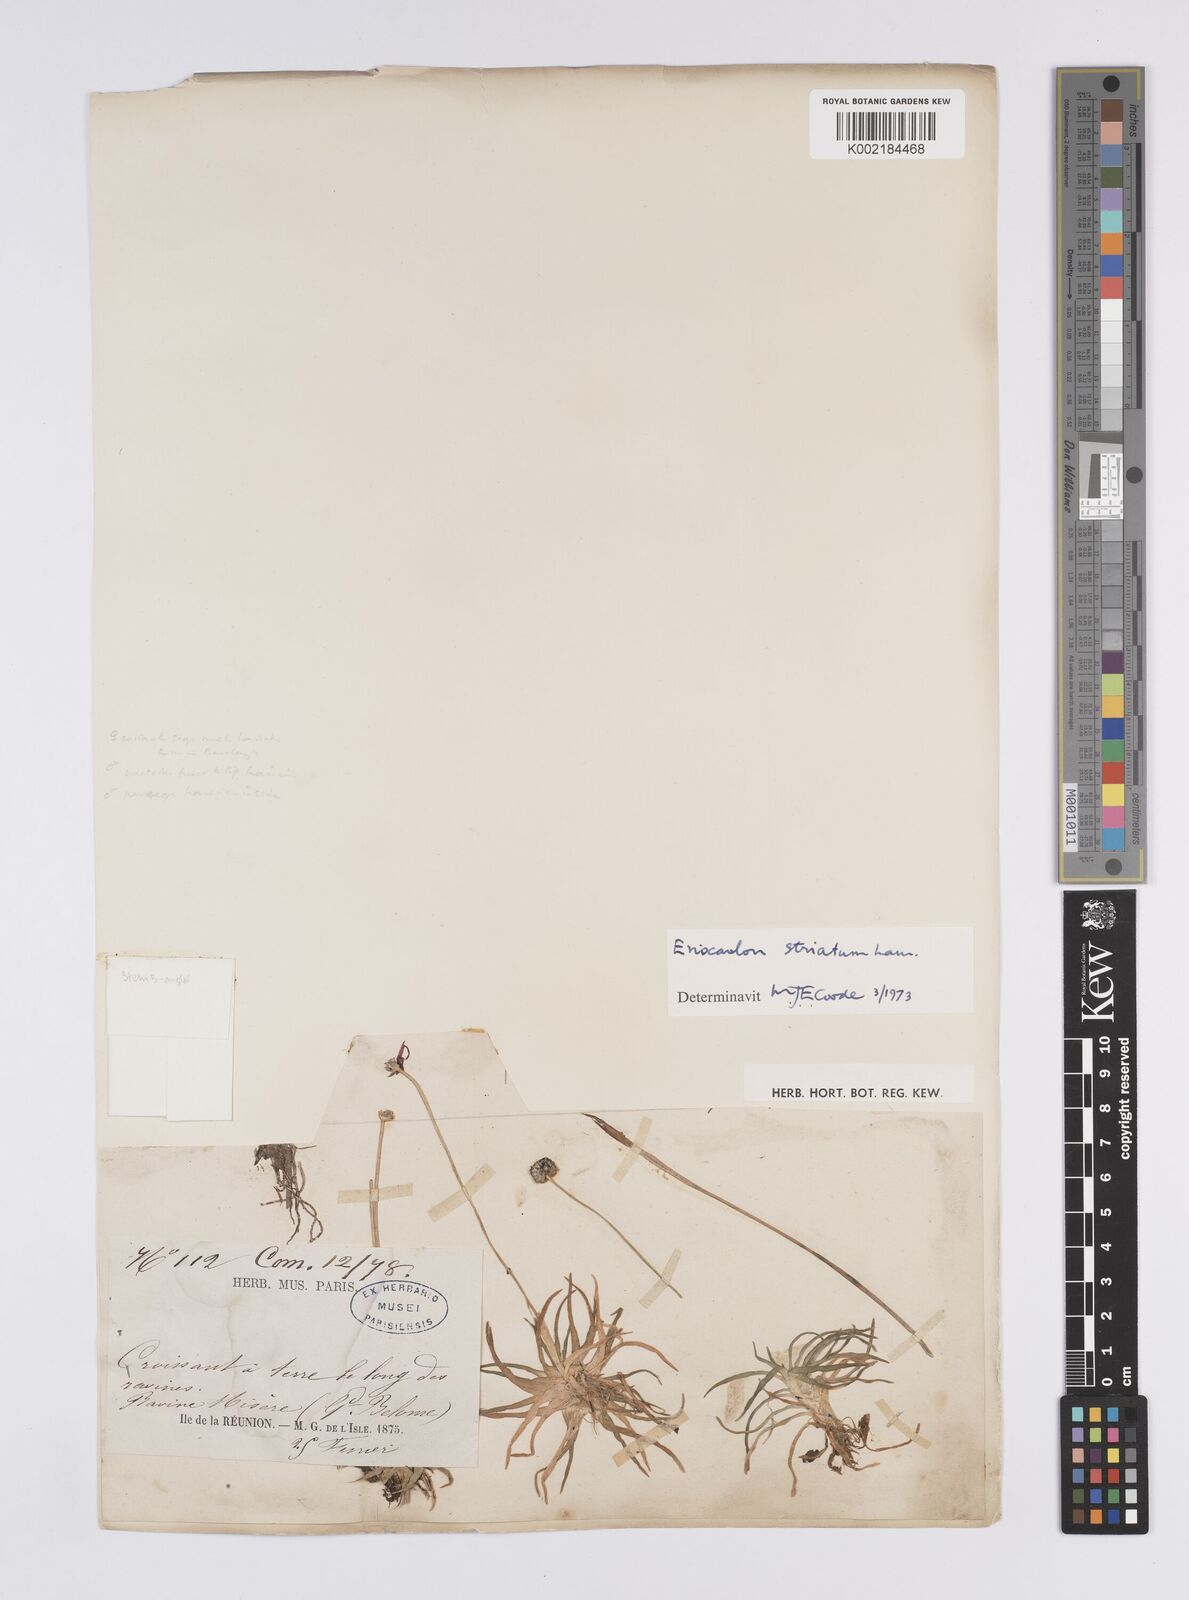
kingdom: Plantae
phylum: Tracheophyta
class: Liliopsida
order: Poales
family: Eriocaulaceae
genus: Eriocaulon
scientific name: Eriocaulon striatum
